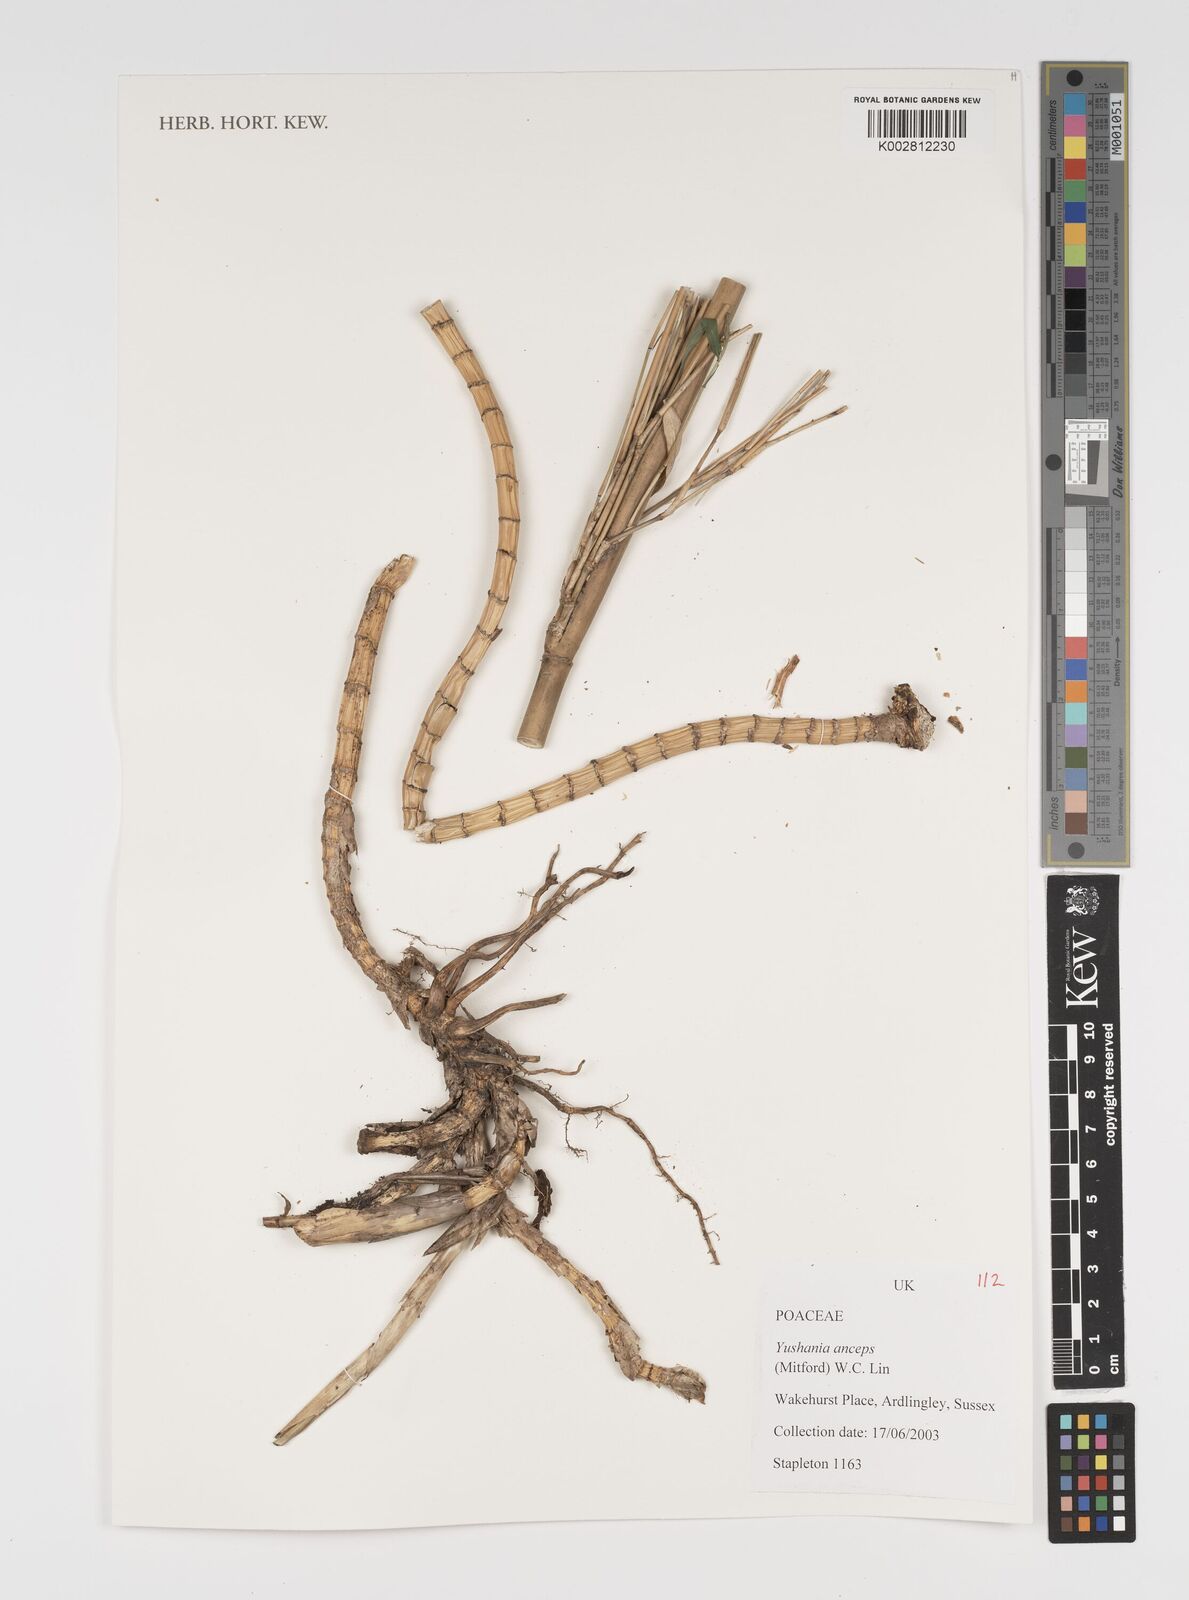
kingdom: Plantae
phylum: Tracheophyta
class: Liliopsida
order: Poales
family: Poaceae
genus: Yushania
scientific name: Yushania anceps
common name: Indian fountain-bamboo
